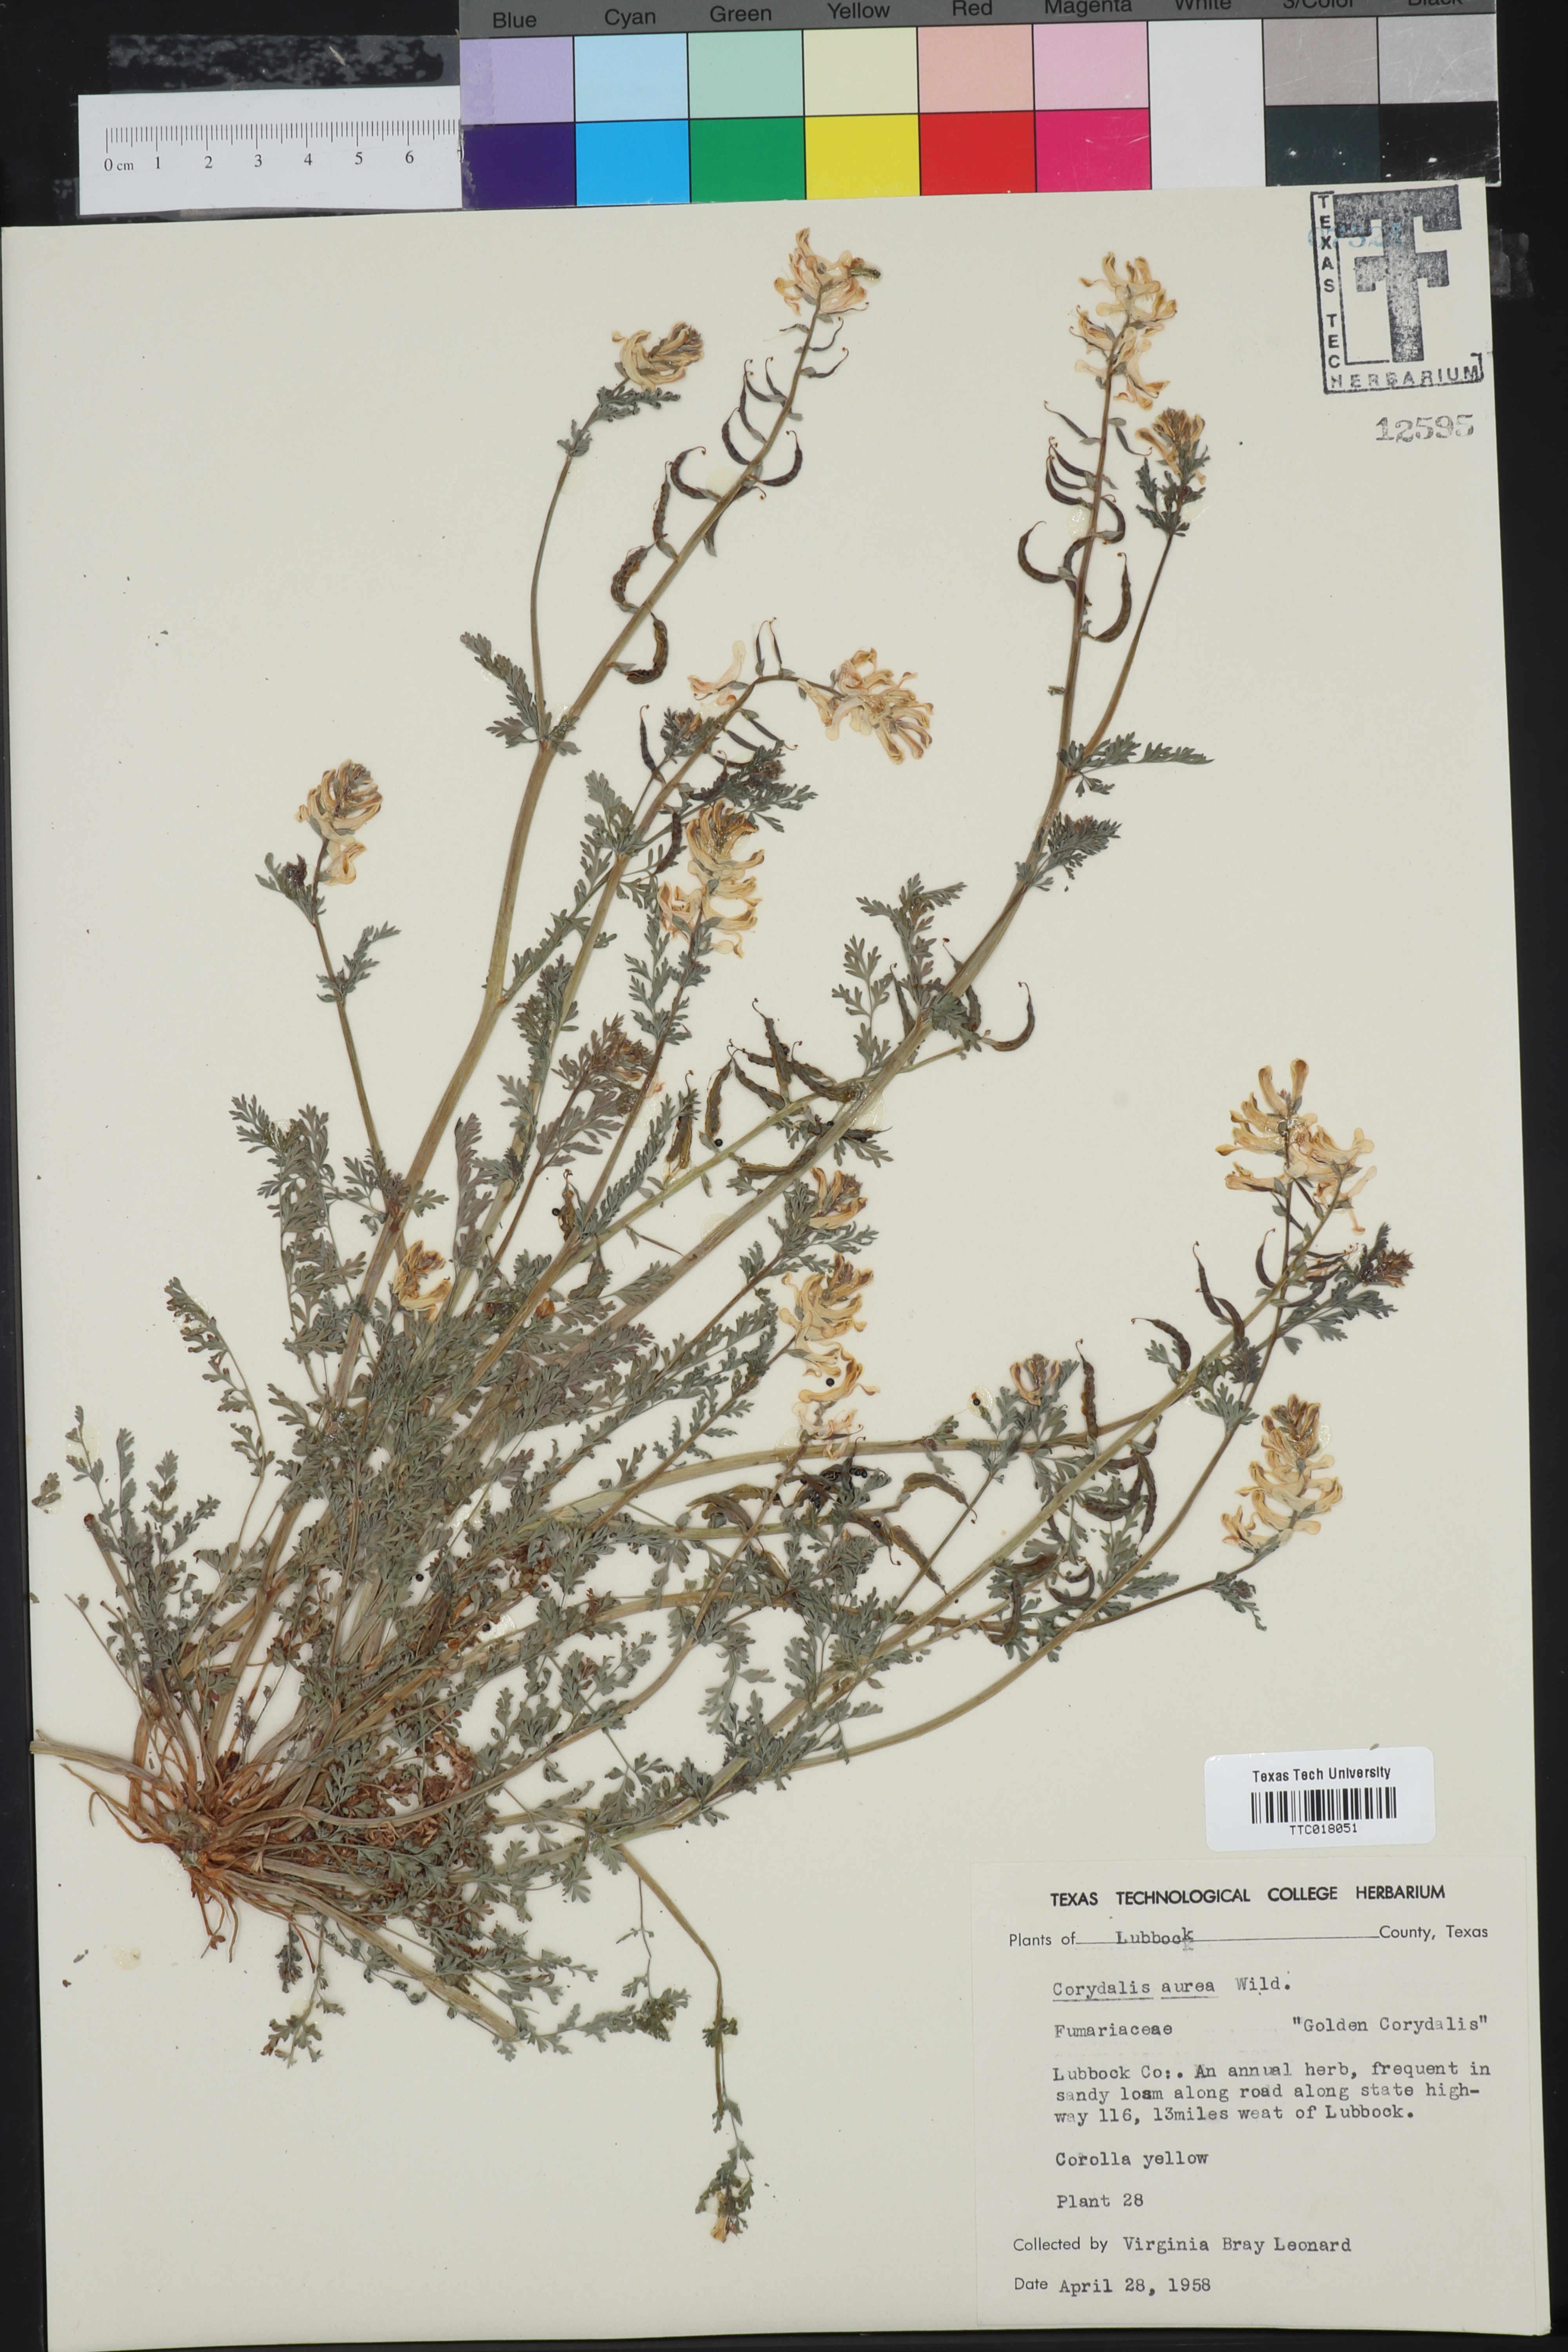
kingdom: Plantae
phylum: Tracheophyta
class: Magnoliopsida
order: Ranunculales
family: Papaveraceae
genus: Corydalis
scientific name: Corydalis aurea
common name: Golden corydalis
